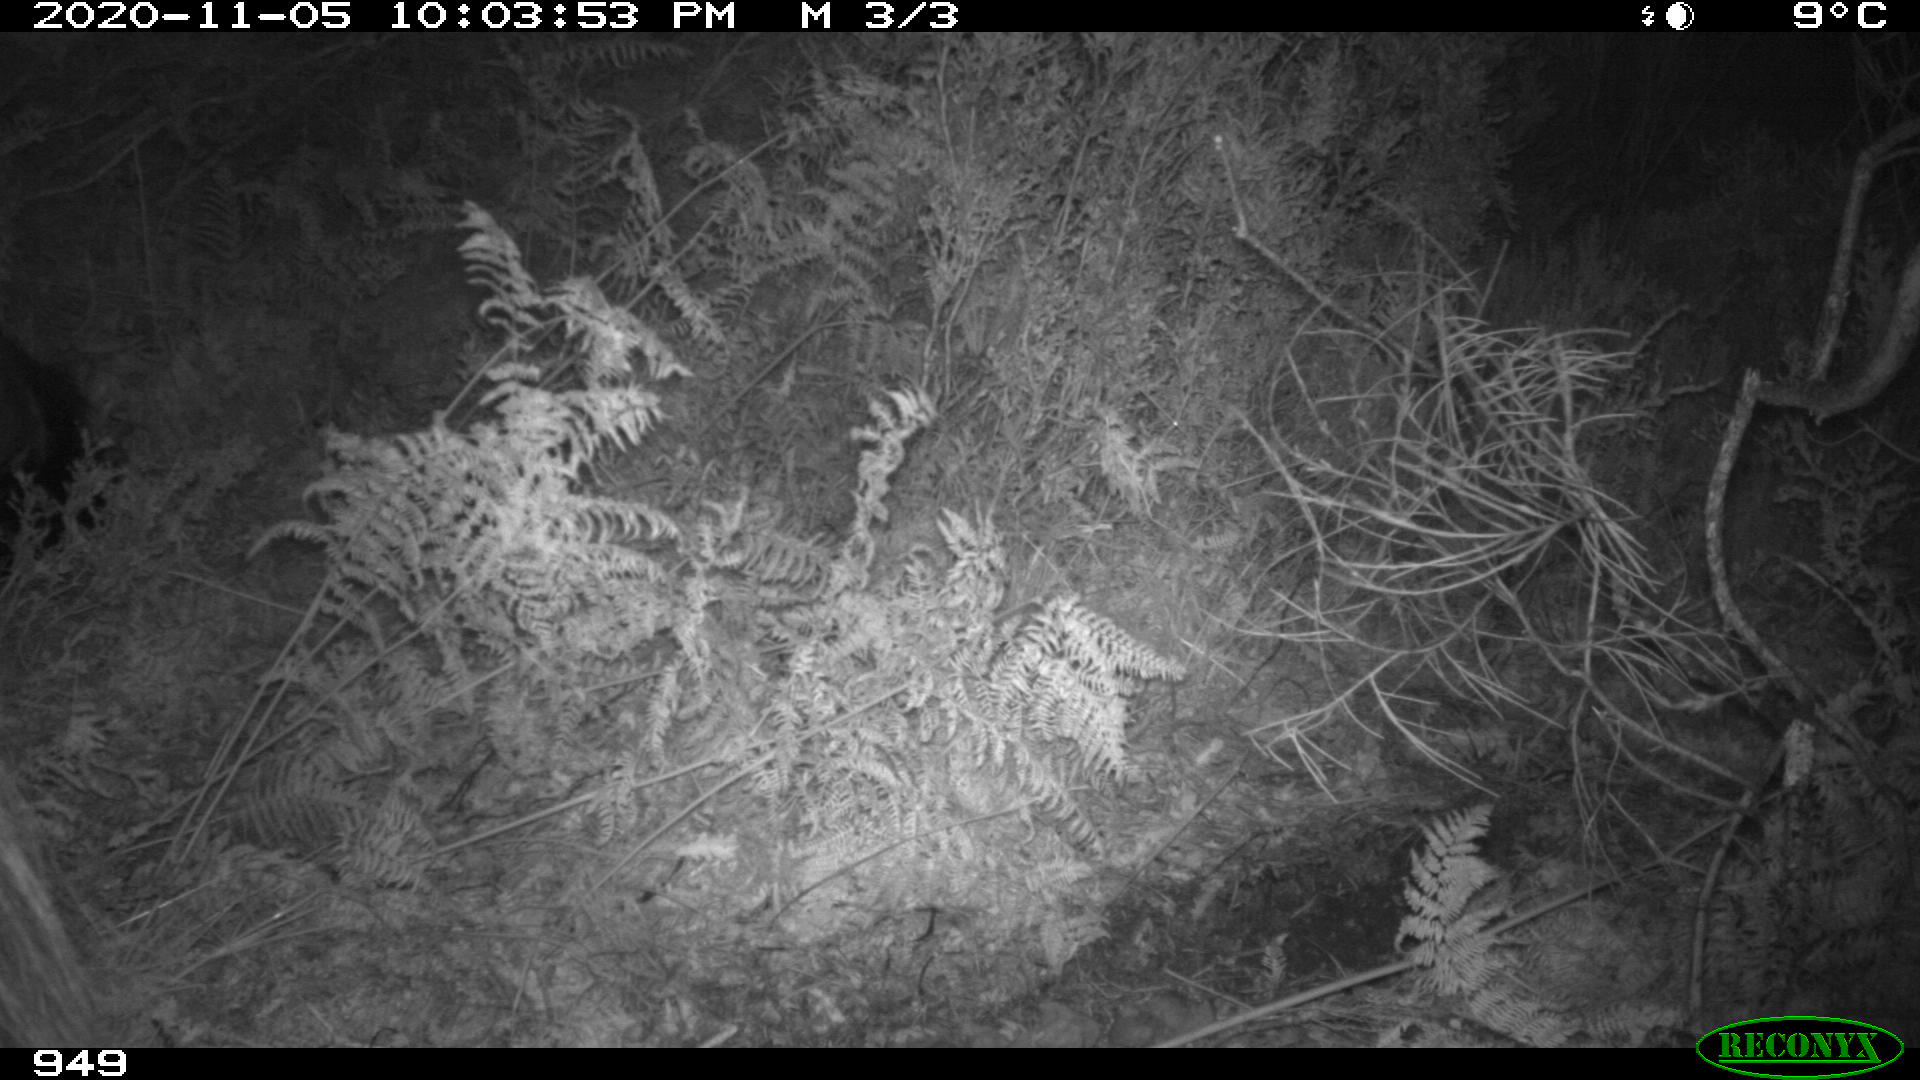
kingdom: Animalia
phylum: Chordata
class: Mammalia
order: Perissodactyla
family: Equidae
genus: Equus
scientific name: Equus caballus
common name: Horse
